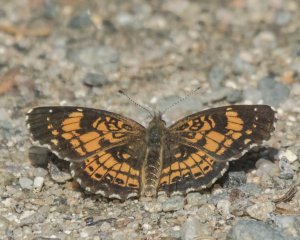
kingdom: Animalia
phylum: Arthropoda
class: Insecta
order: Lepidoptera
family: Nymphalidae
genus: Chlosyne
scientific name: Chlosyne nycteis
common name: Silvery Checkerspot
